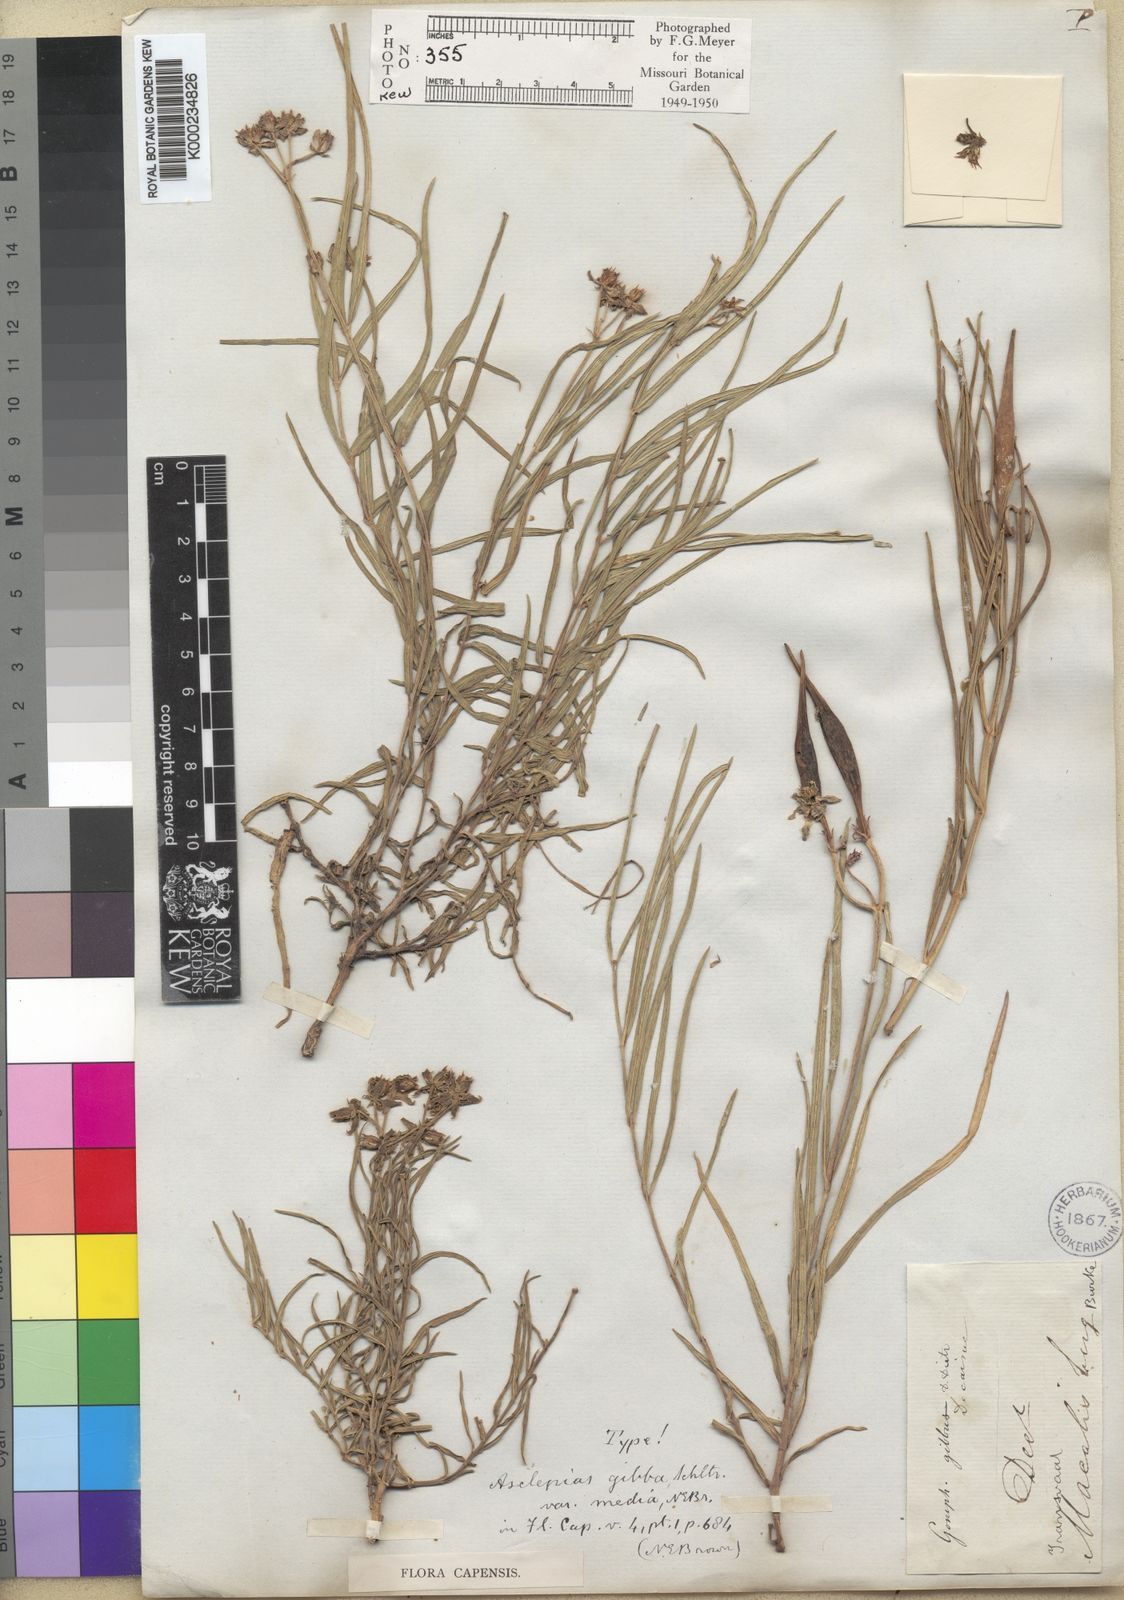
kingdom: Plantae
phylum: Tracheophyta
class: Magnoliopsida
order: Gentianales
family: Apocynaceae
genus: Asclepias
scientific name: Asclepias gibba
